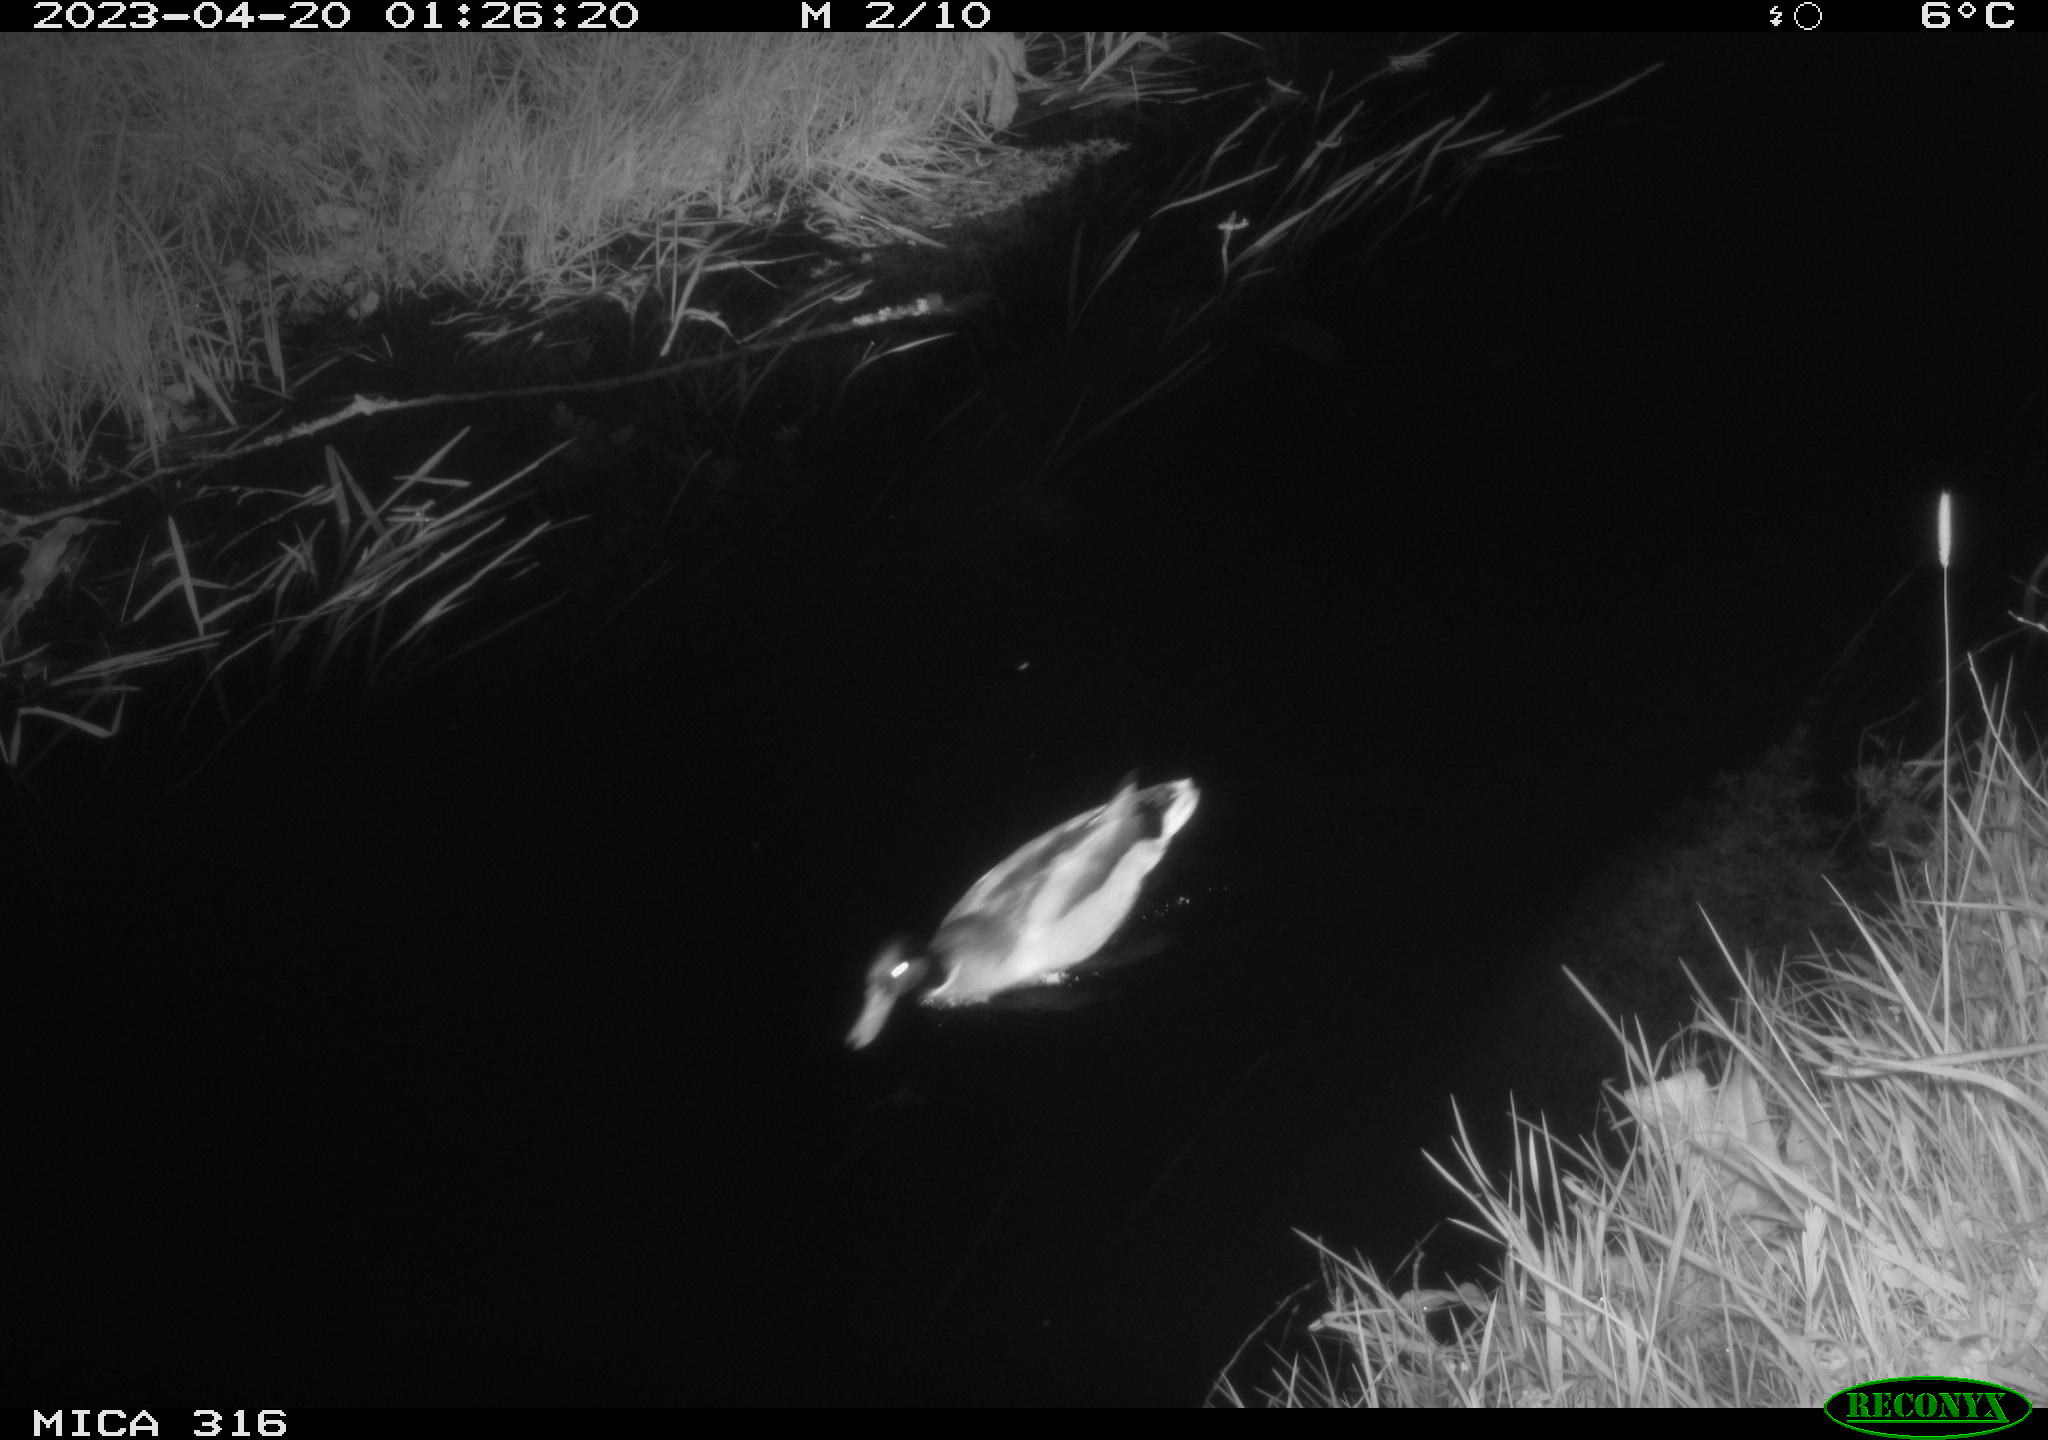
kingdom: Animalia
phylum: Chordata
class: Aves
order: Anseriformes
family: Anatidae
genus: Anas
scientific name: Anas
